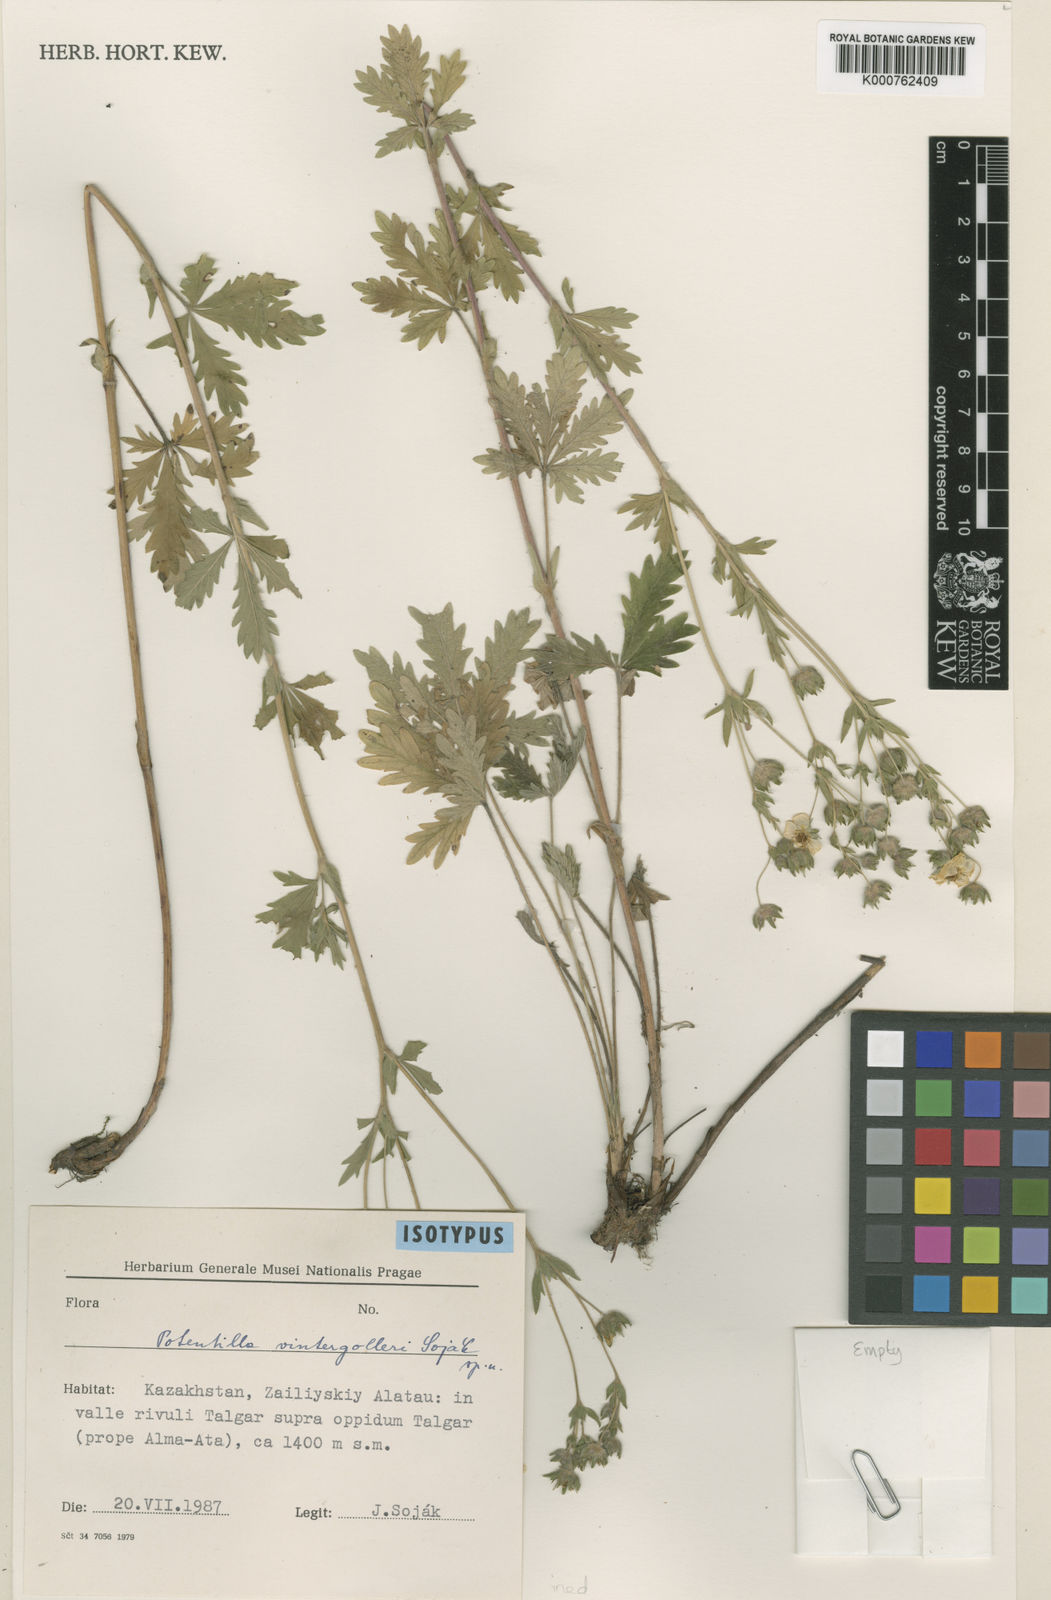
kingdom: Plantae
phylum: Tracheophyta
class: Magnoliopsida
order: Rosales
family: Rosaceae
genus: Potentilla
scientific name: Potentilla
